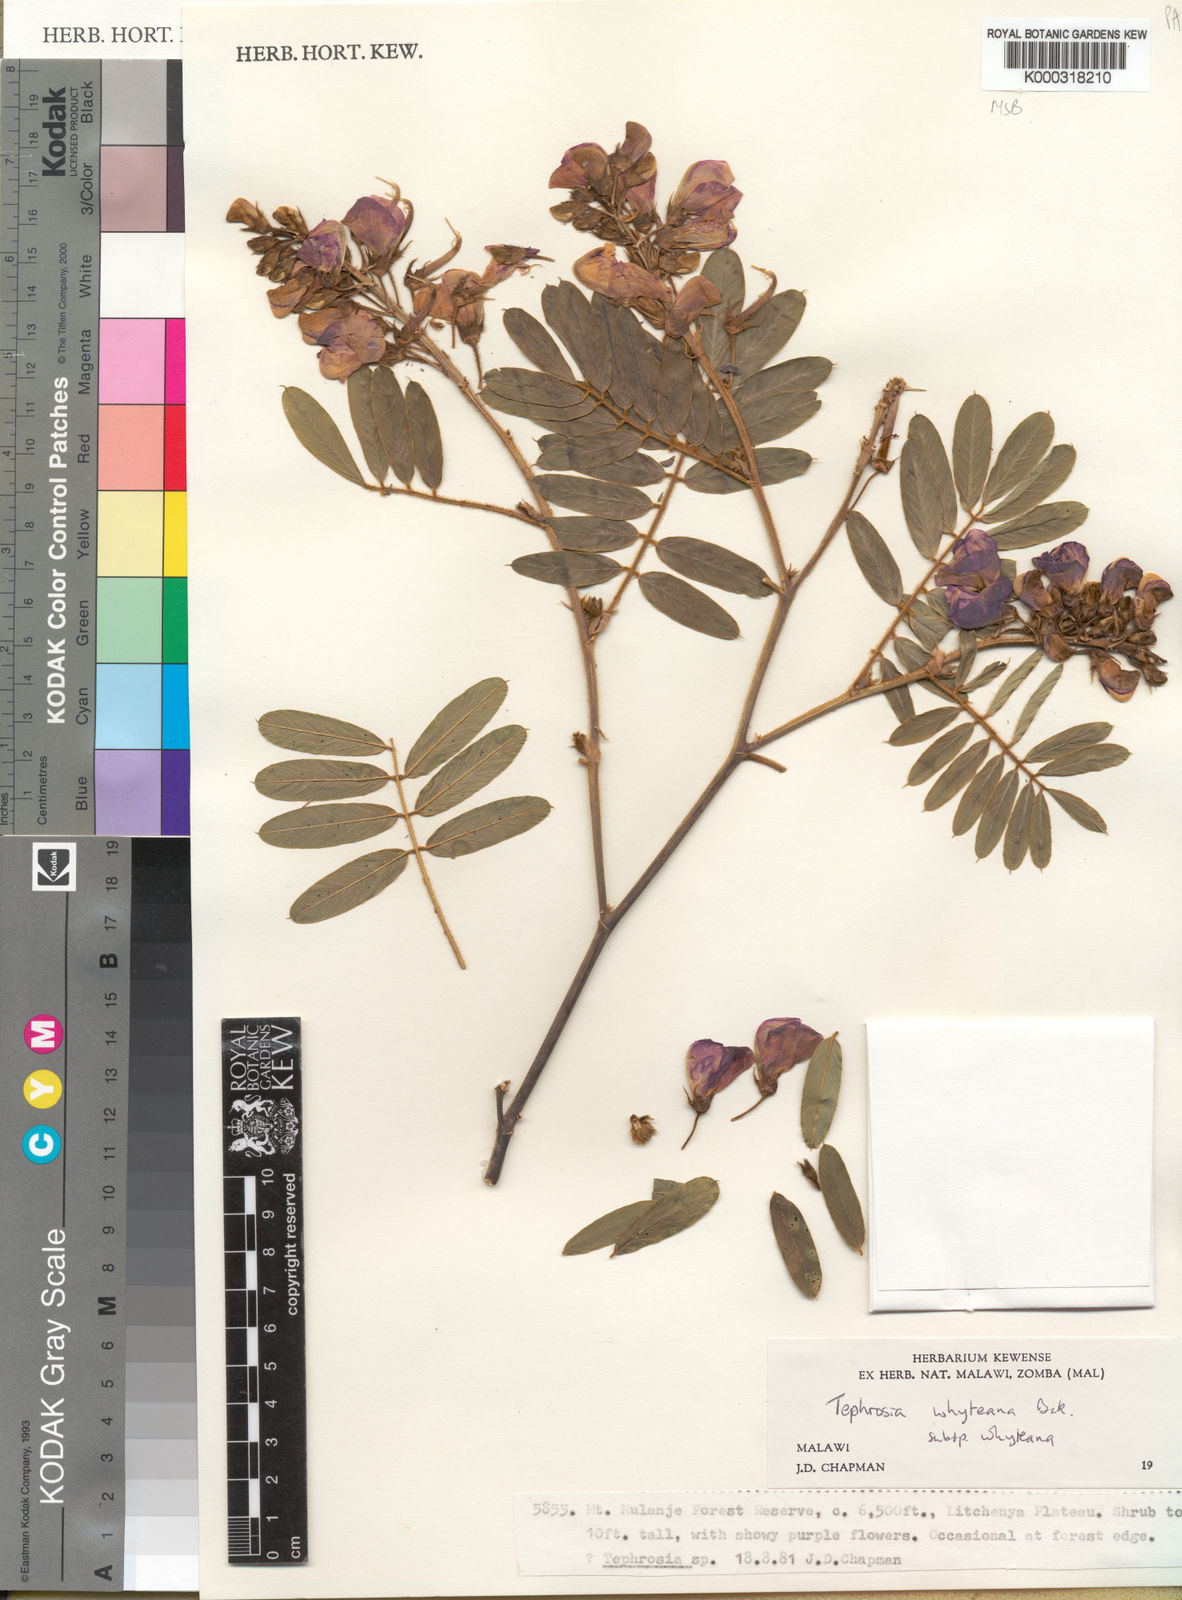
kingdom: Plantae
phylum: Tracheophyta
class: Magnoliopsida
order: Fabales
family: Fabaceae
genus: Tephrosia
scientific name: Tephrosia whyteana
